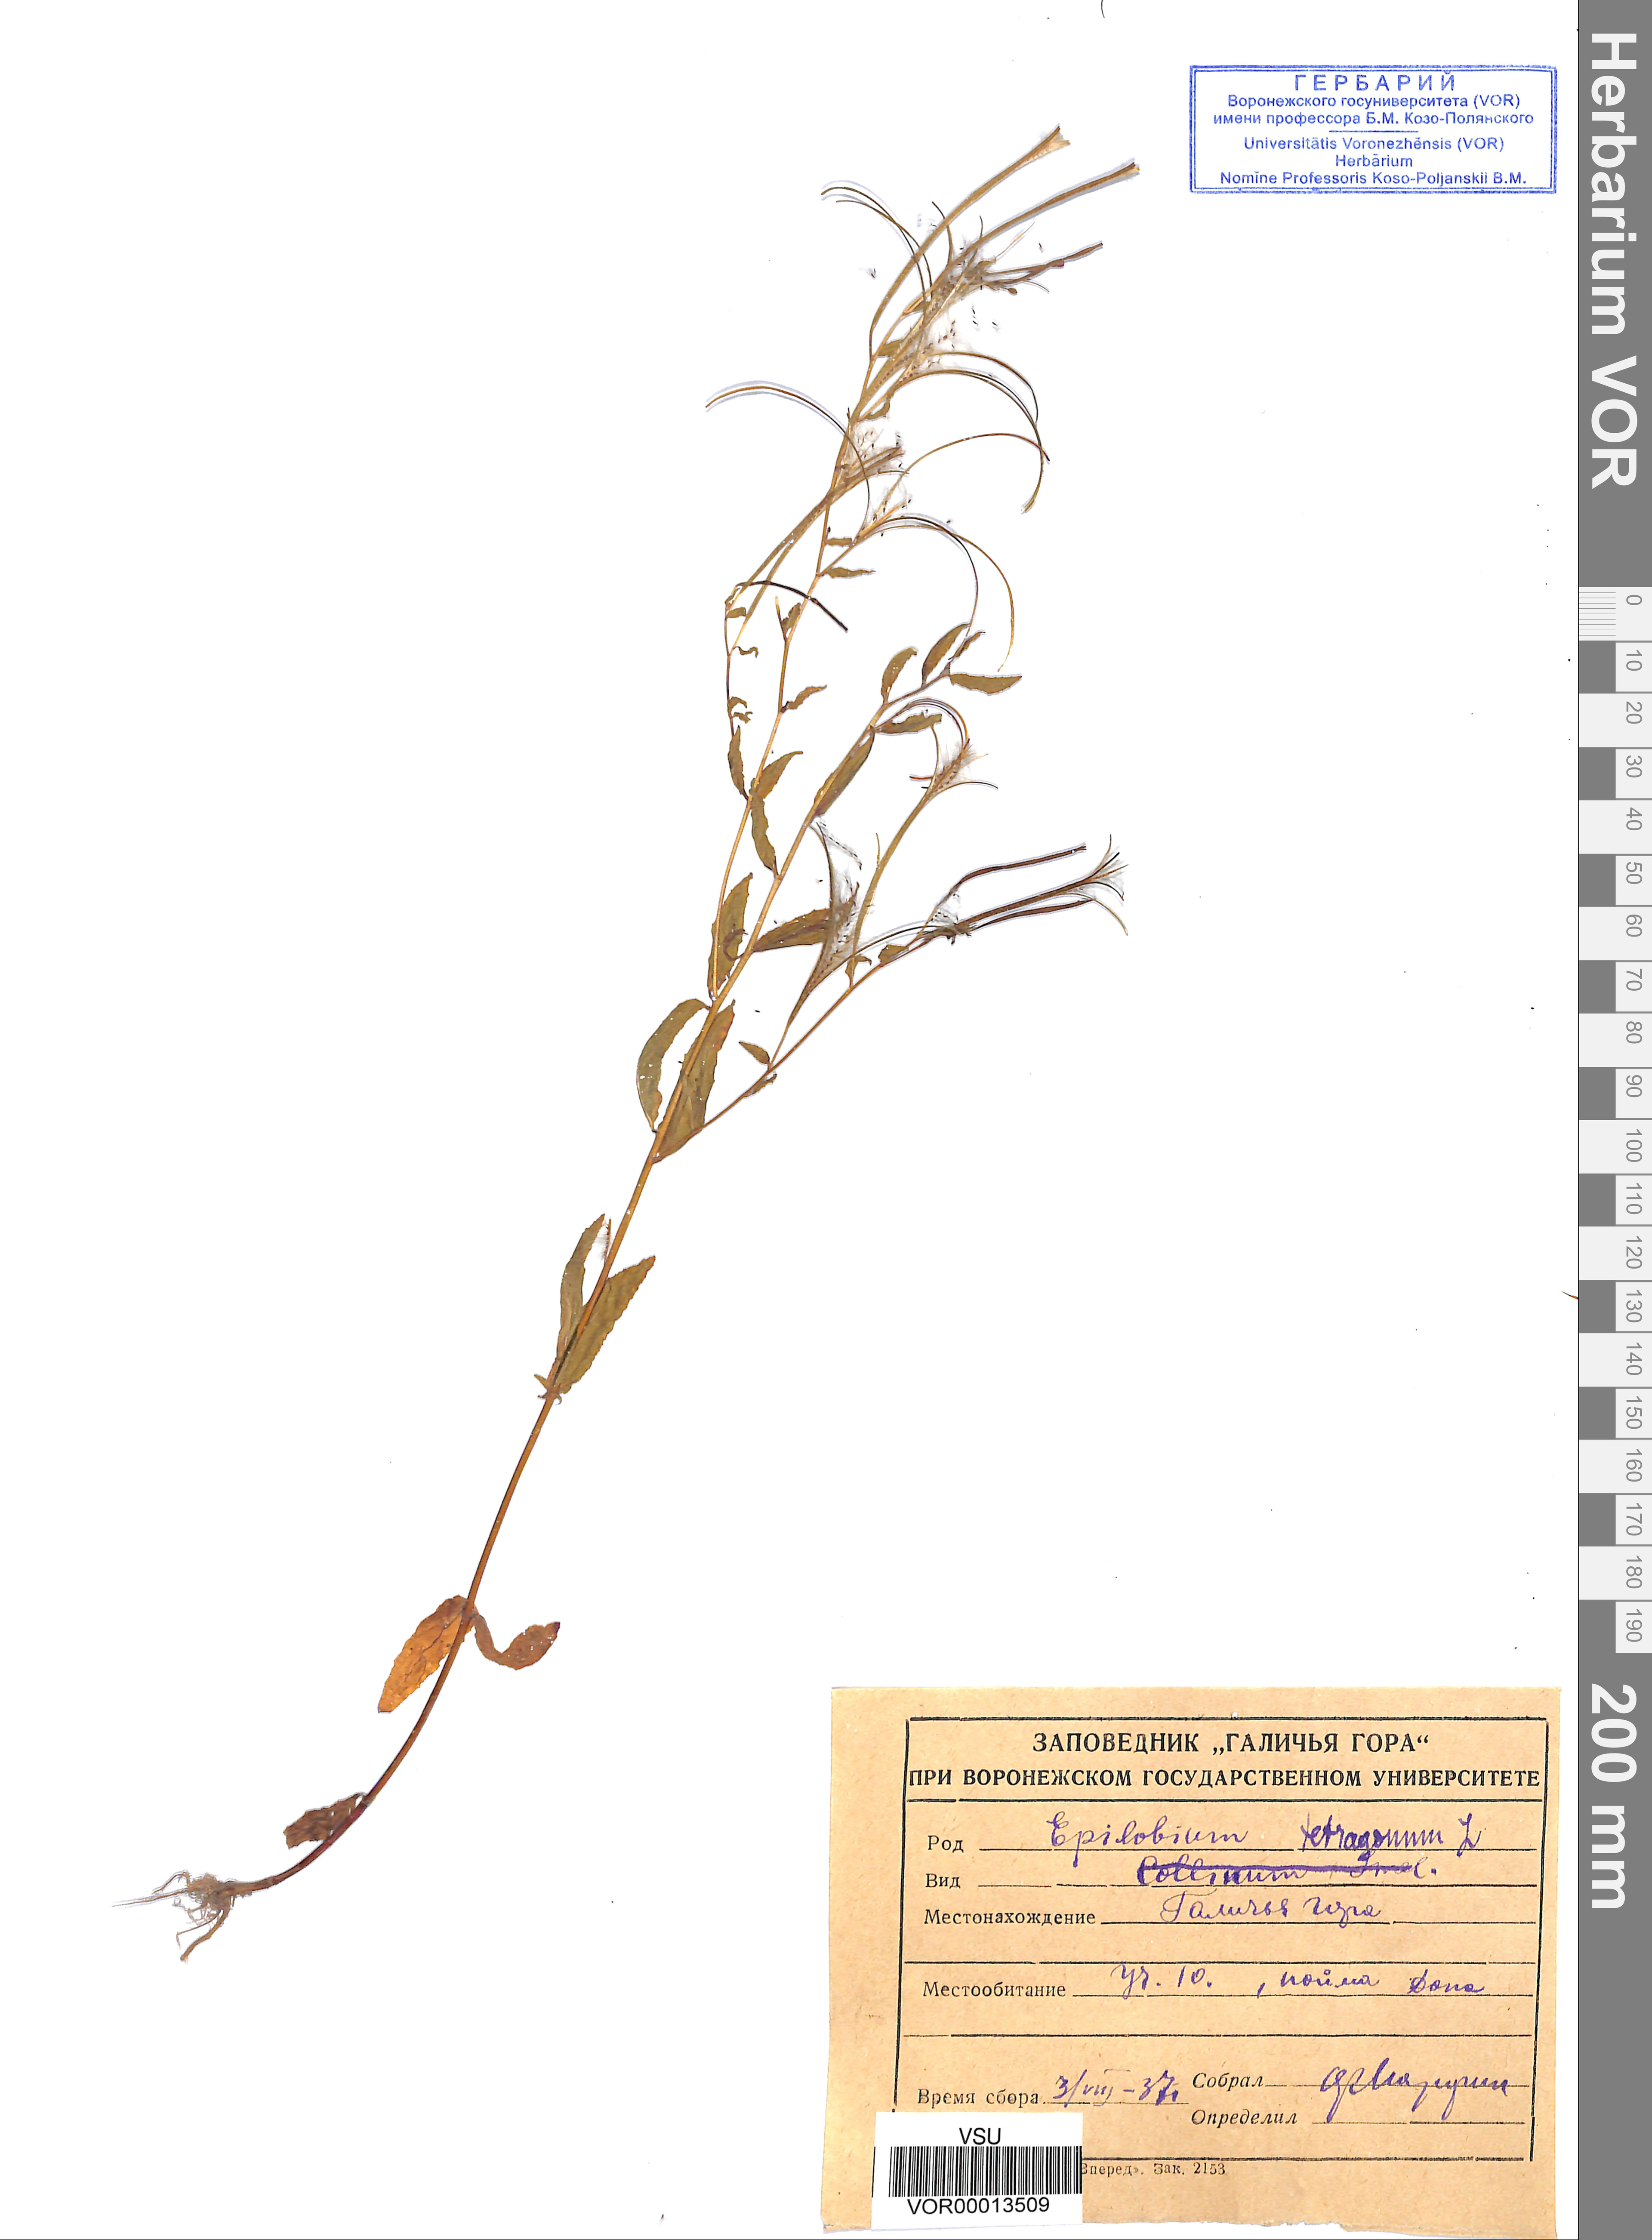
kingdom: Plantae
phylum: Tracheophyta
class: Magnoliopsida
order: Myrtales
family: Onagraceae
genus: Epilobium
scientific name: Epilobium tetragonum
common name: Square-stemmed willowherb
